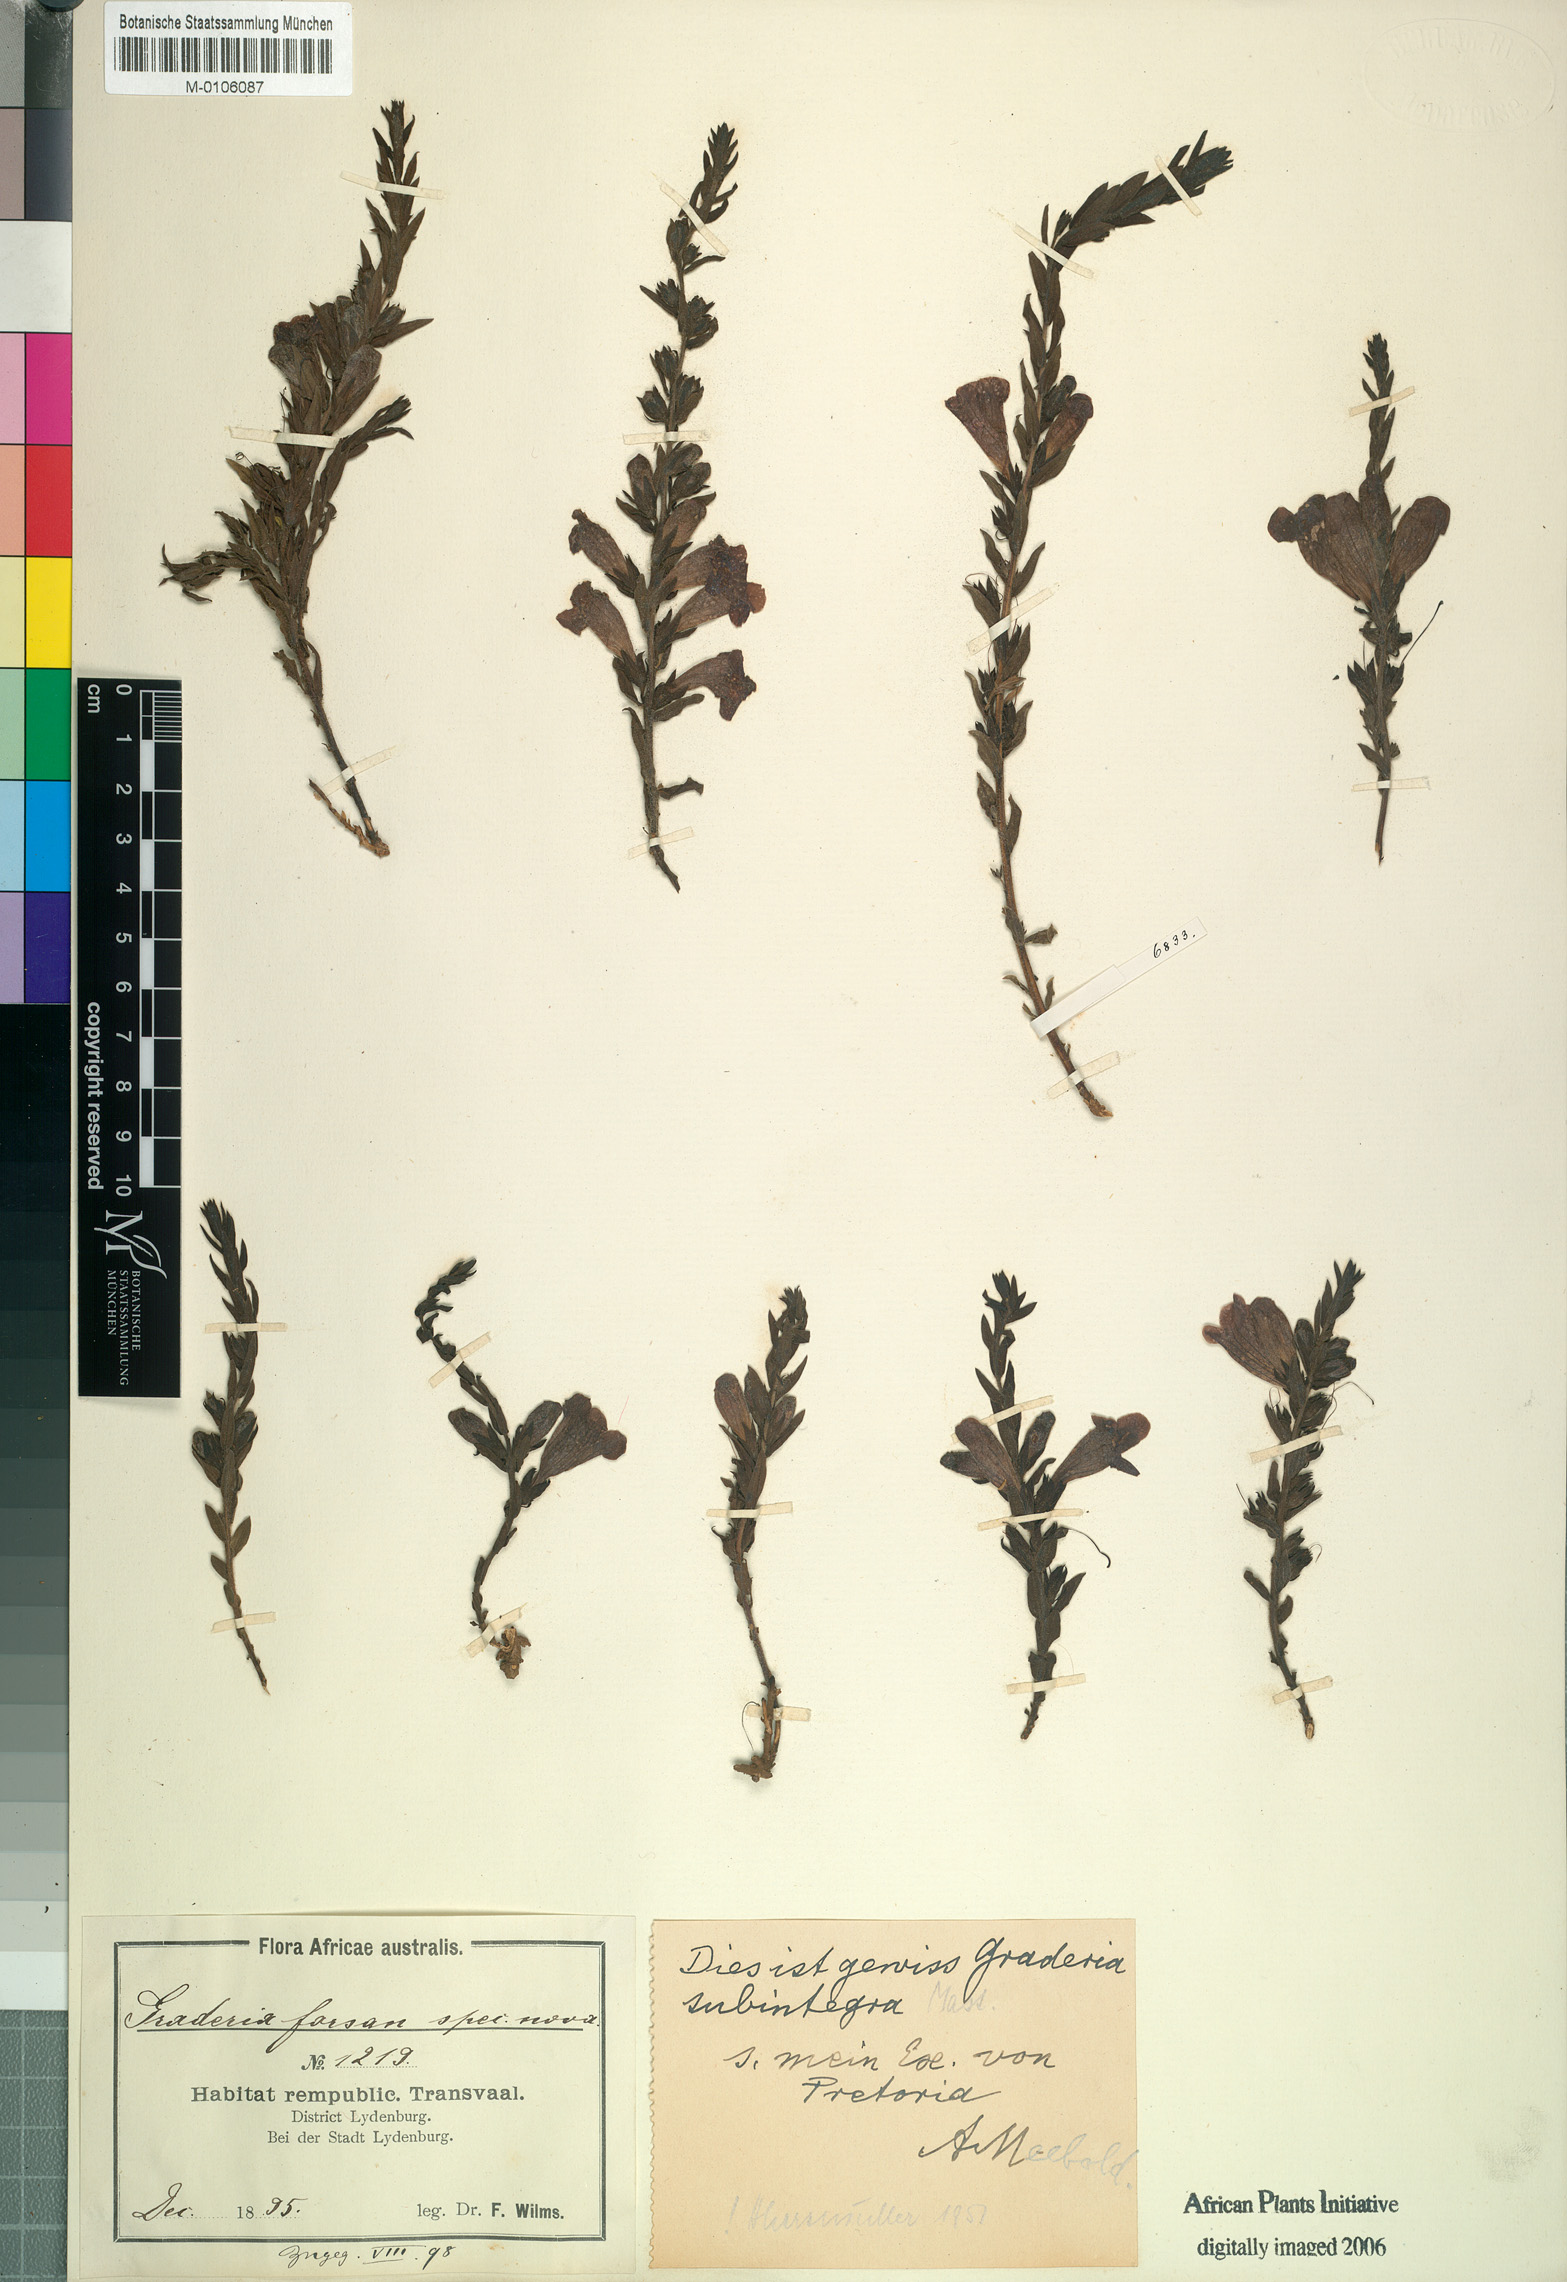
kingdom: Plantae
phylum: Tracheophyta
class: Magnoliopsida
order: Lamiales
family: Orobanchaceae
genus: Graderia
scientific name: Graderia subintegra
